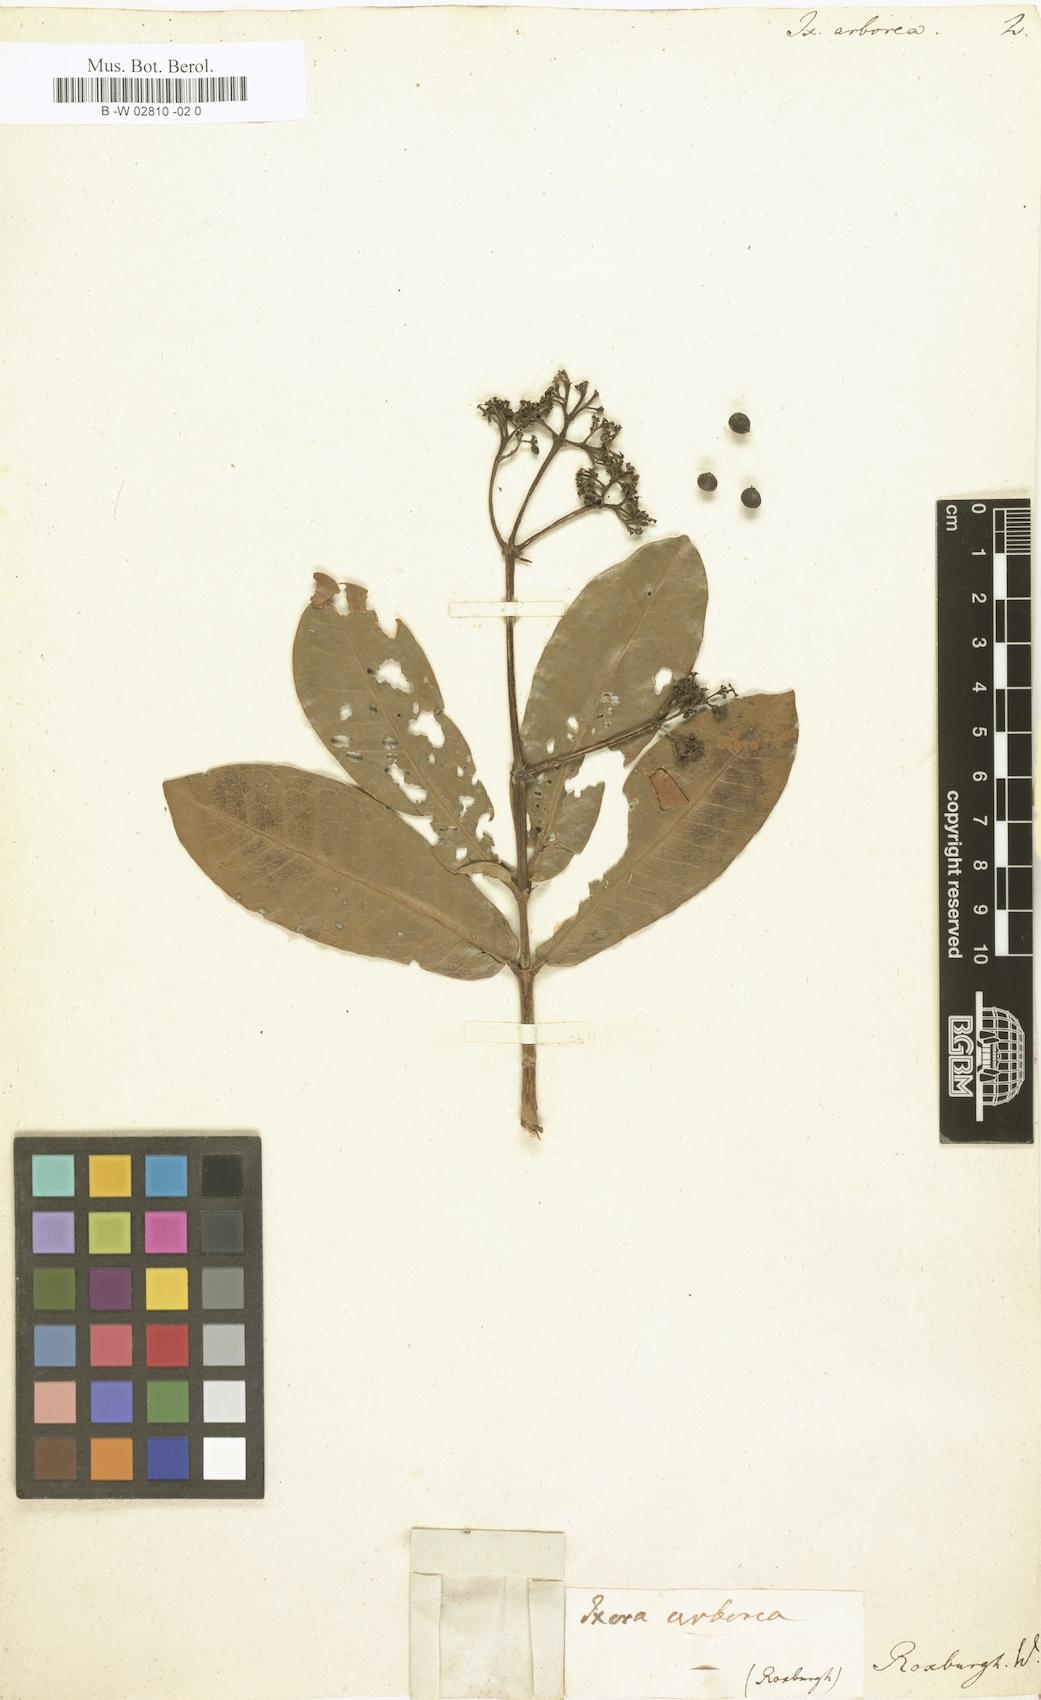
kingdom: Plantae
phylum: Tracheophyta
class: Magnoliopsida
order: Gentianales
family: Rubiaceae
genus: Ixora
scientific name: Ixora pavetta
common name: Torch tree
